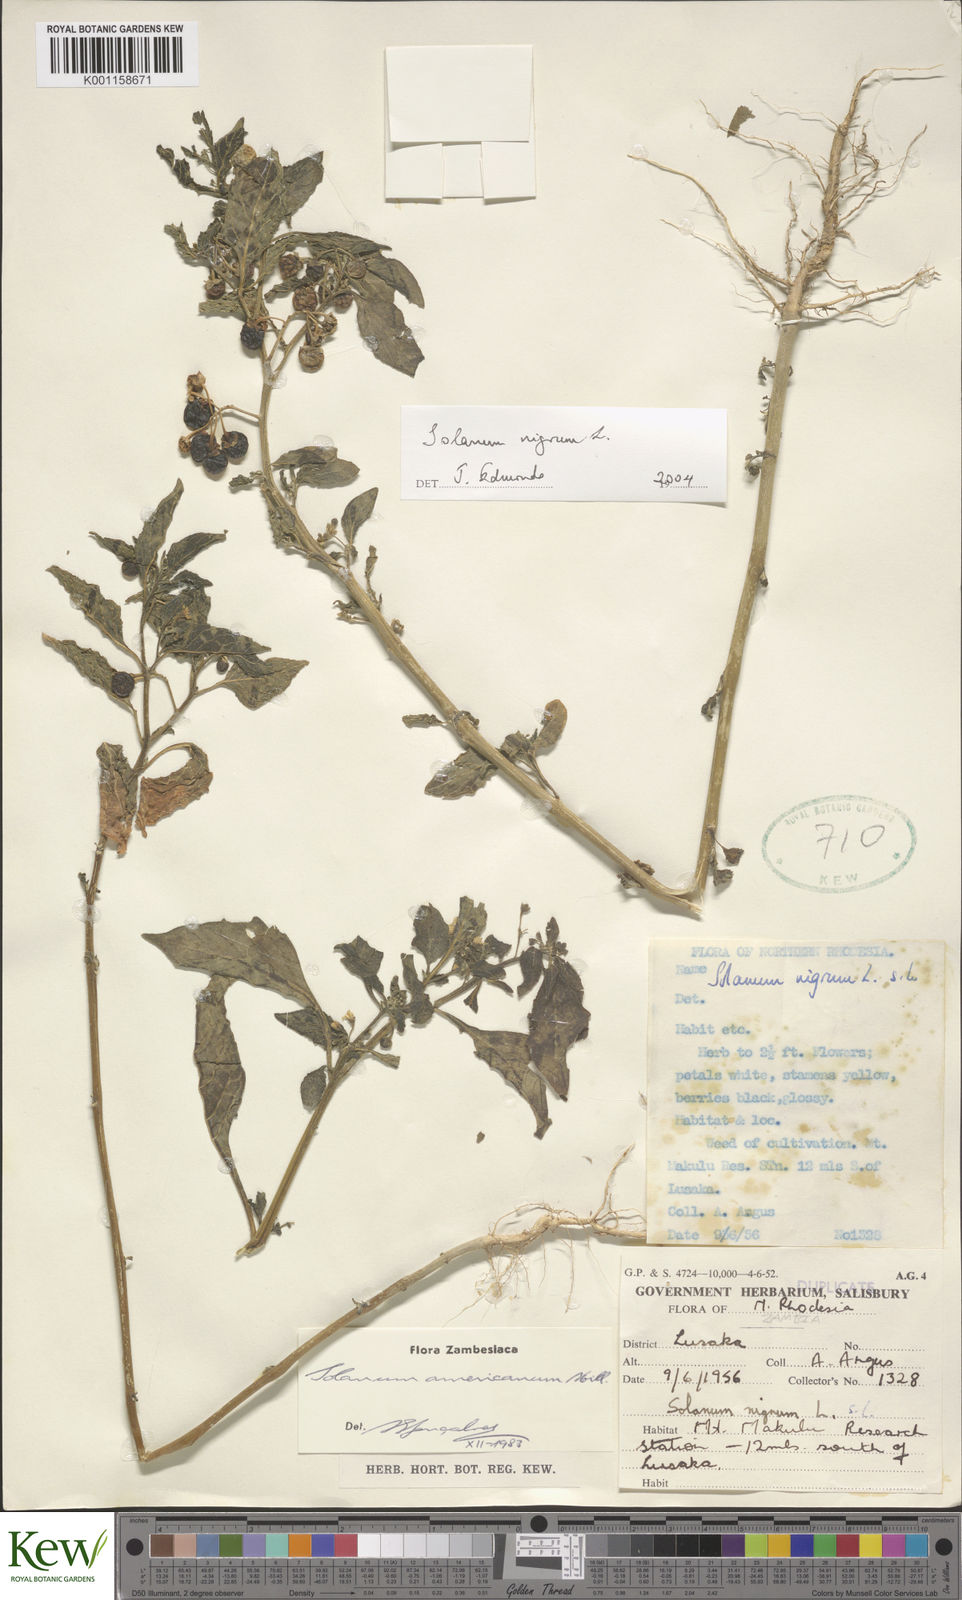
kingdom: Plantae
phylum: Tracheophyta
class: Magnoliopsida
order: Solanales
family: Solanaceae
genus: Solanum
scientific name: Solanum nigrum
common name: Black nightshade
